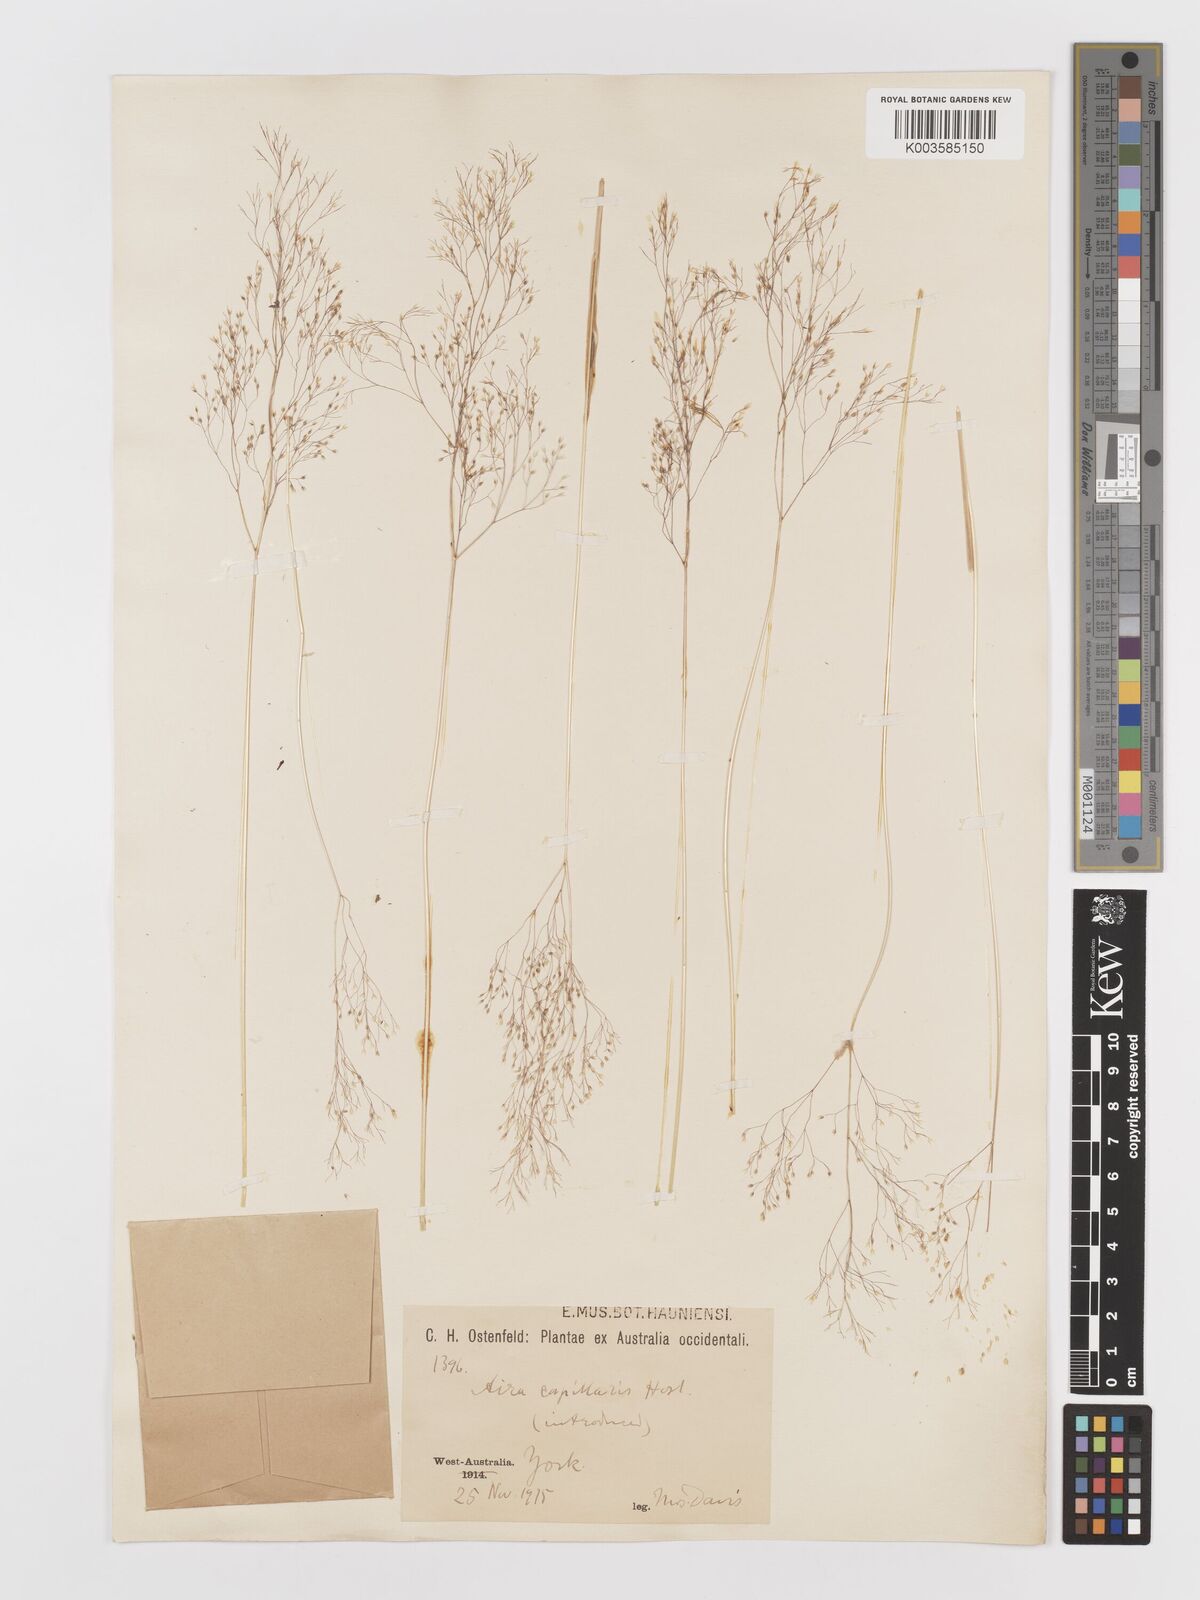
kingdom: Plantae
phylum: Tracheophyta
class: Liliopsida
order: Poales
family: Poaceae
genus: Aira
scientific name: Aira cupaniana
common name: Silver hairgrass
